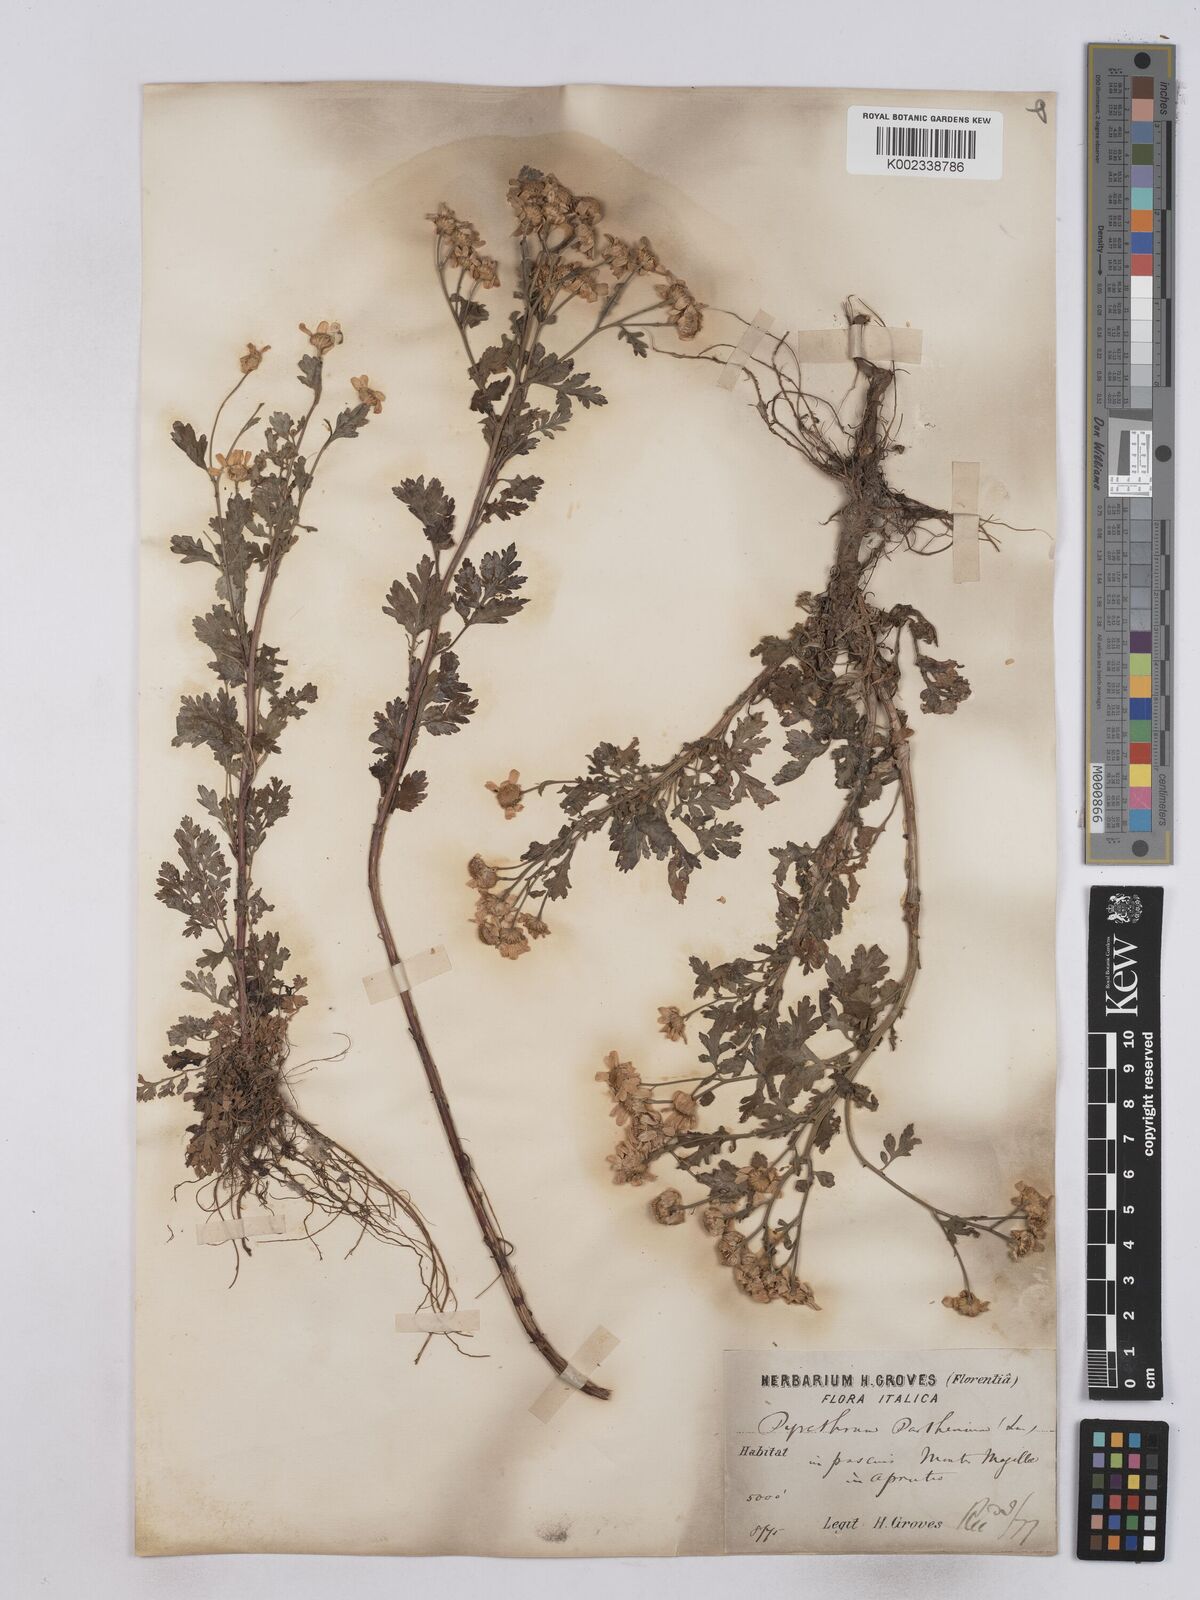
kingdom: Plantae
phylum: Tracheophyta
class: Magnoliopsida
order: Asterales
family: Asteraceae
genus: Tanacetum
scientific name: Tanacetum parthenium
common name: Feverfew
